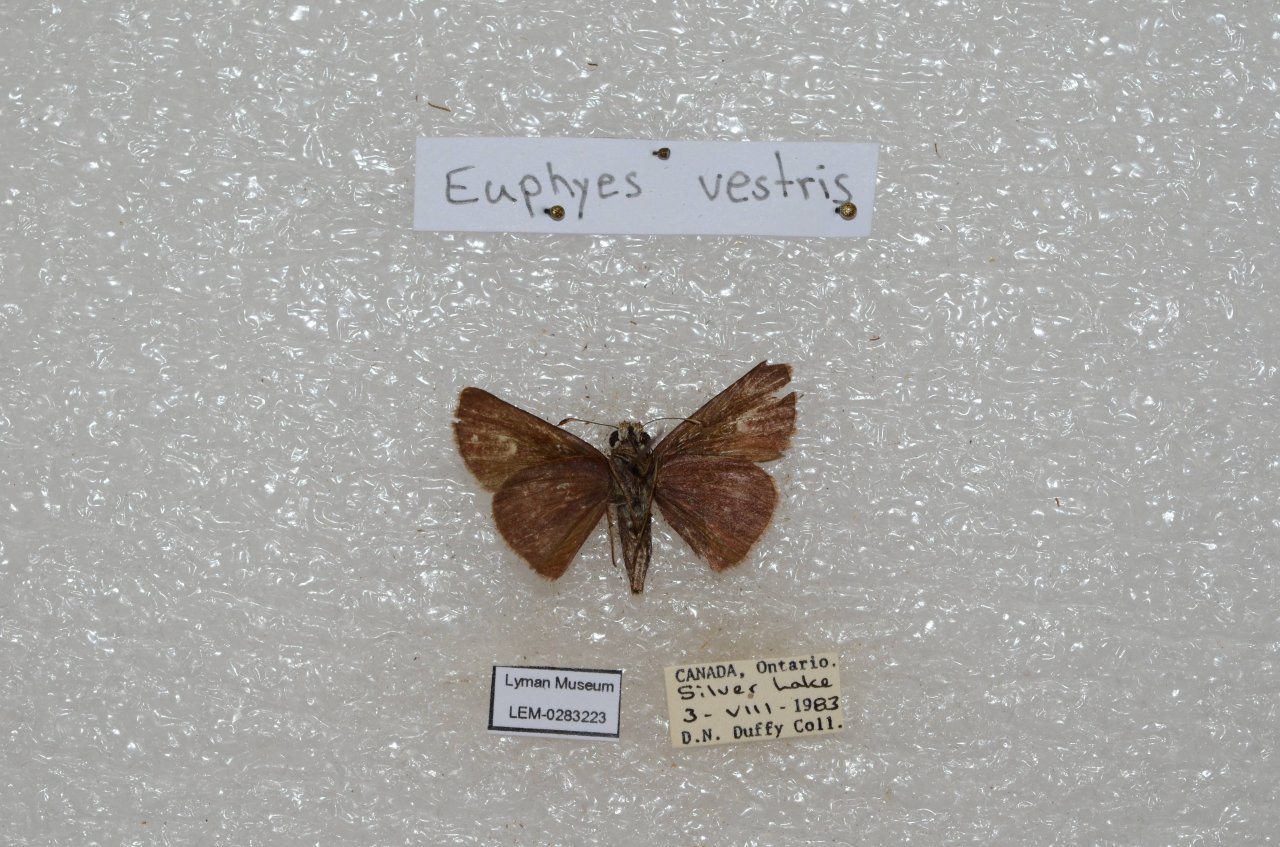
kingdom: Animalia
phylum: Arthropoda
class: Insecta
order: Lepidoptera
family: Hesperiidae
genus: Euphyes
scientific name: Euphyes vestris
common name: Dun Skipper
